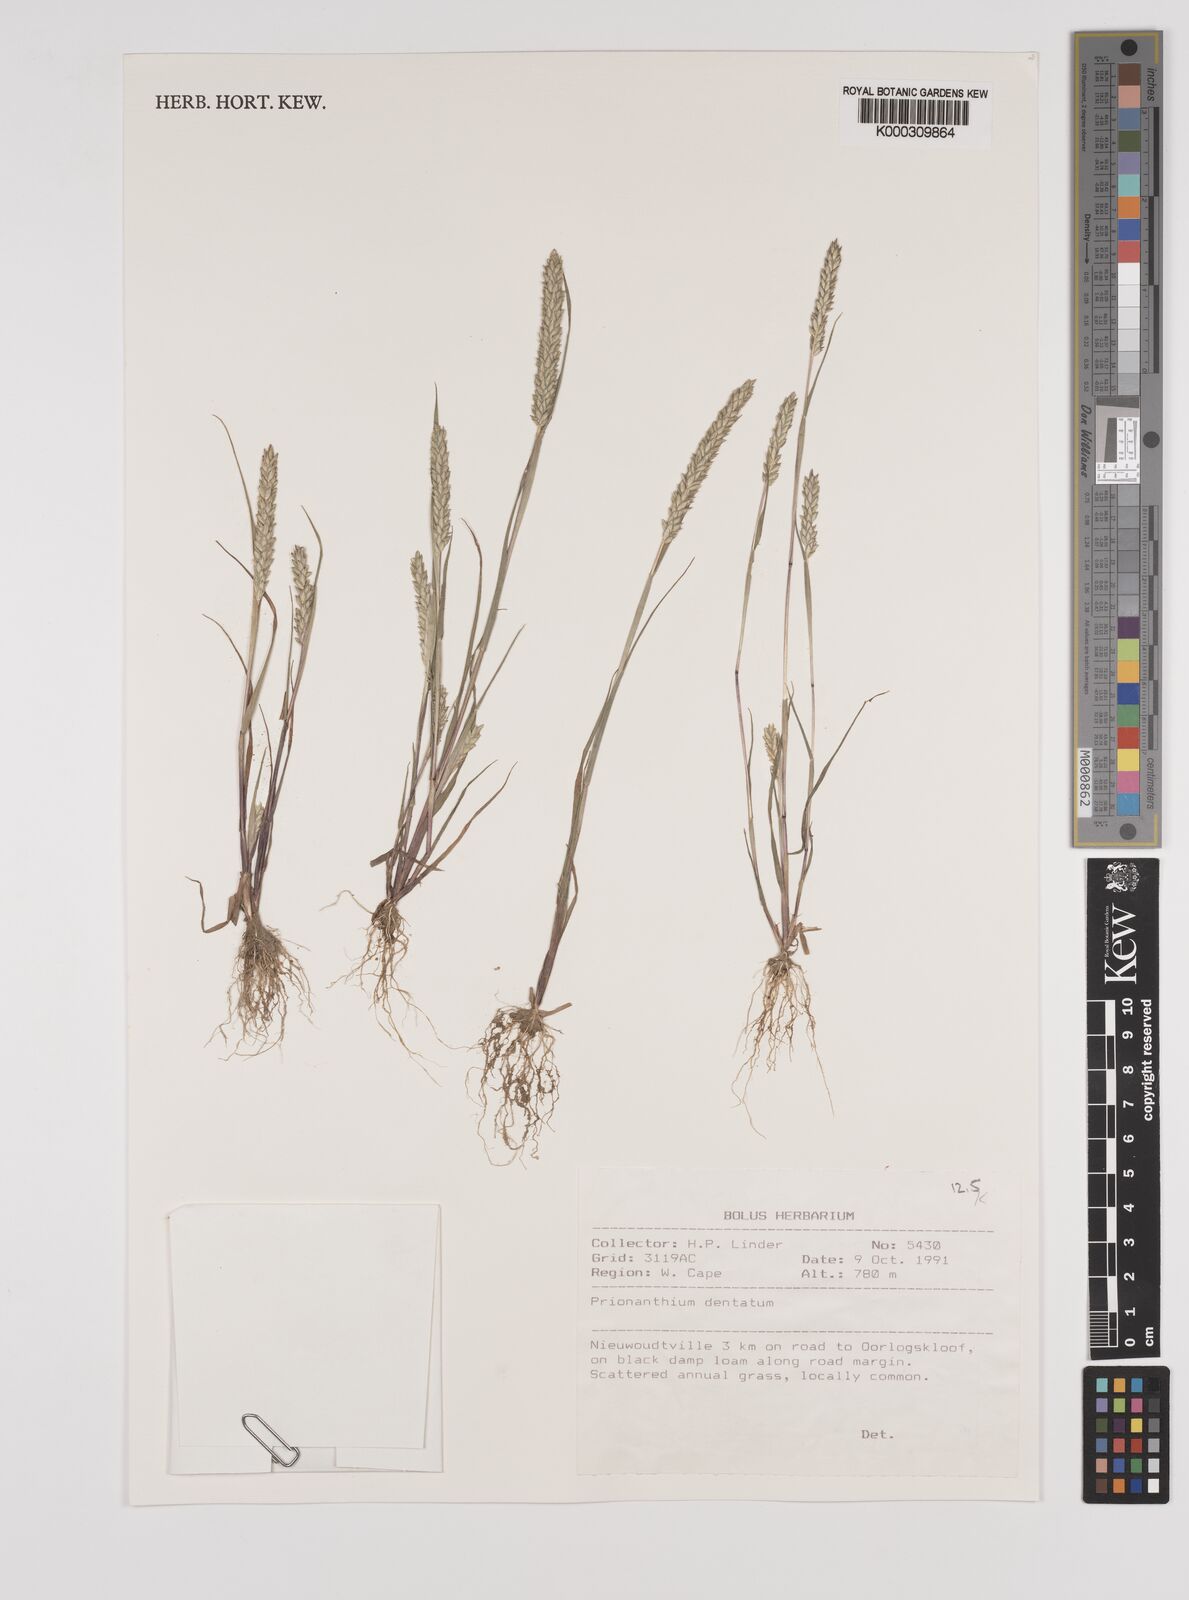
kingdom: Plantae
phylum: Tracheophyta
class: Liliopsida
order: Poales
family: Poaceae
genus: Pentameris
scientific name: Pentameris dentata
